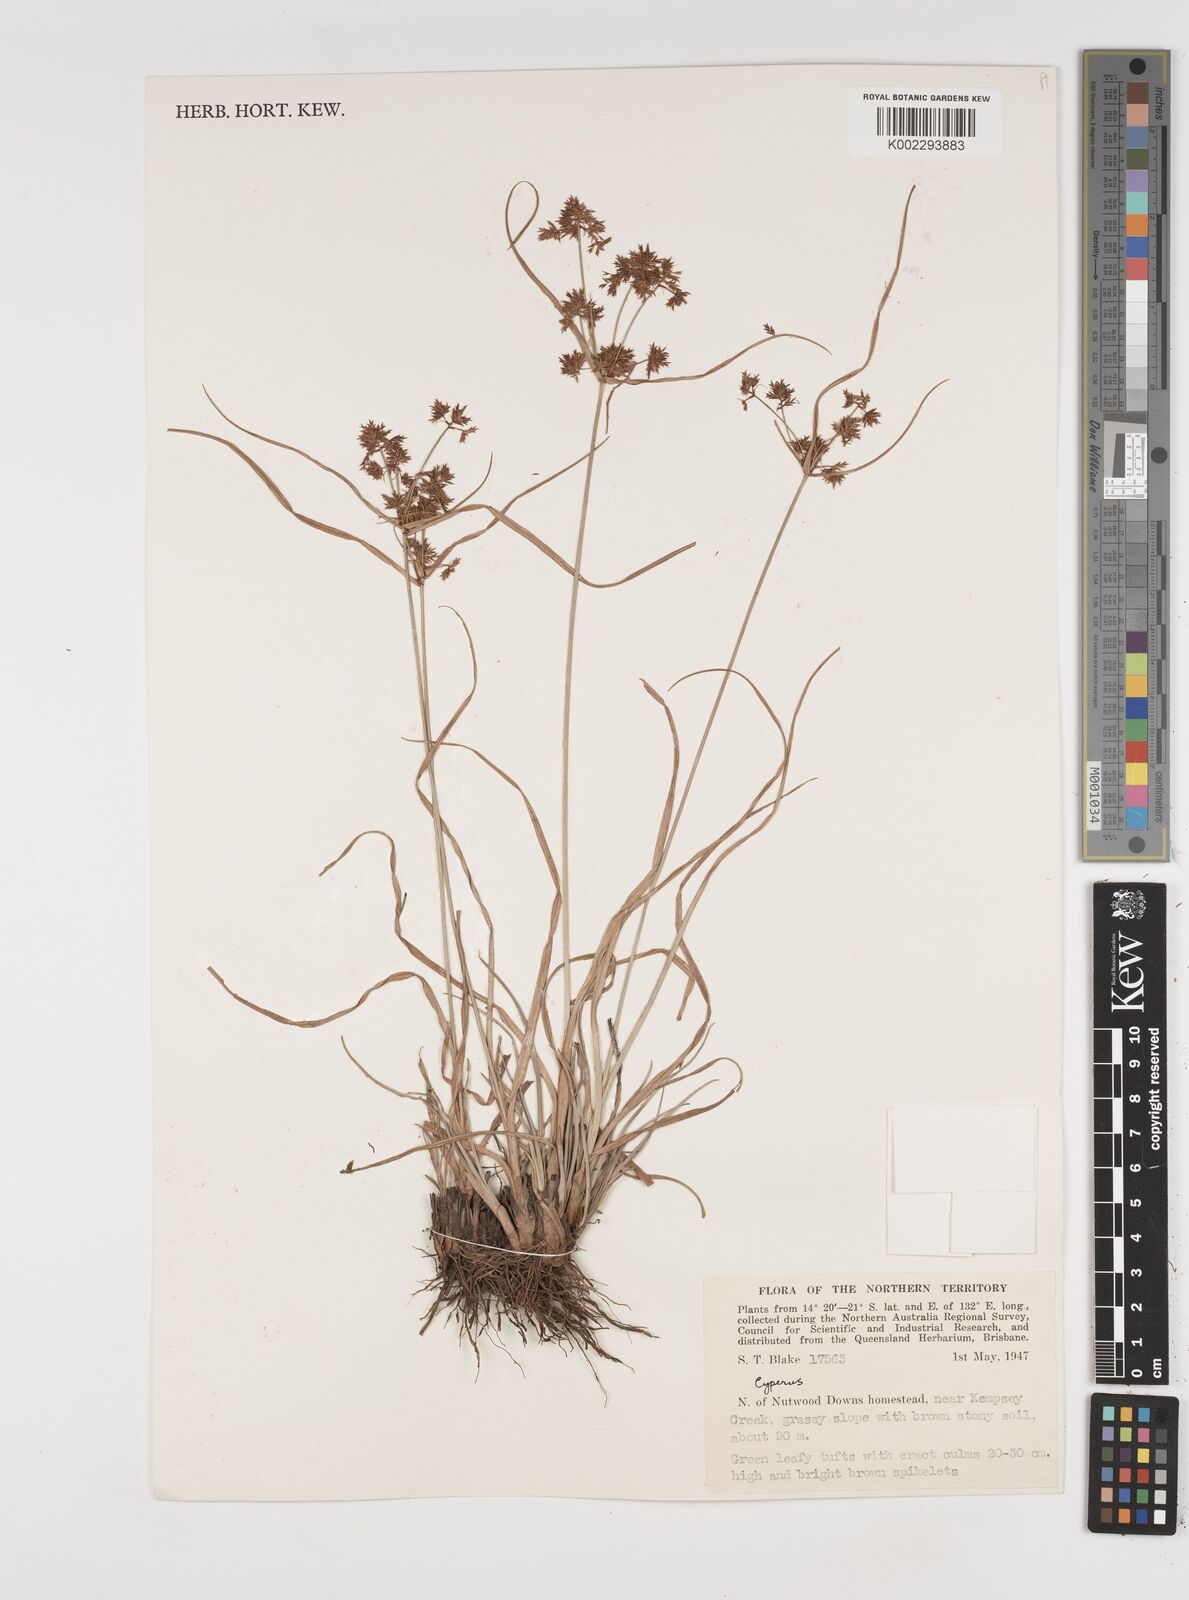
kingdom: Plantae
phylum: Tracheophyta
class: Liliopsida
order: Poales
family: Cyperaceae
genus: Cyperus
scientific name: Cyperus
